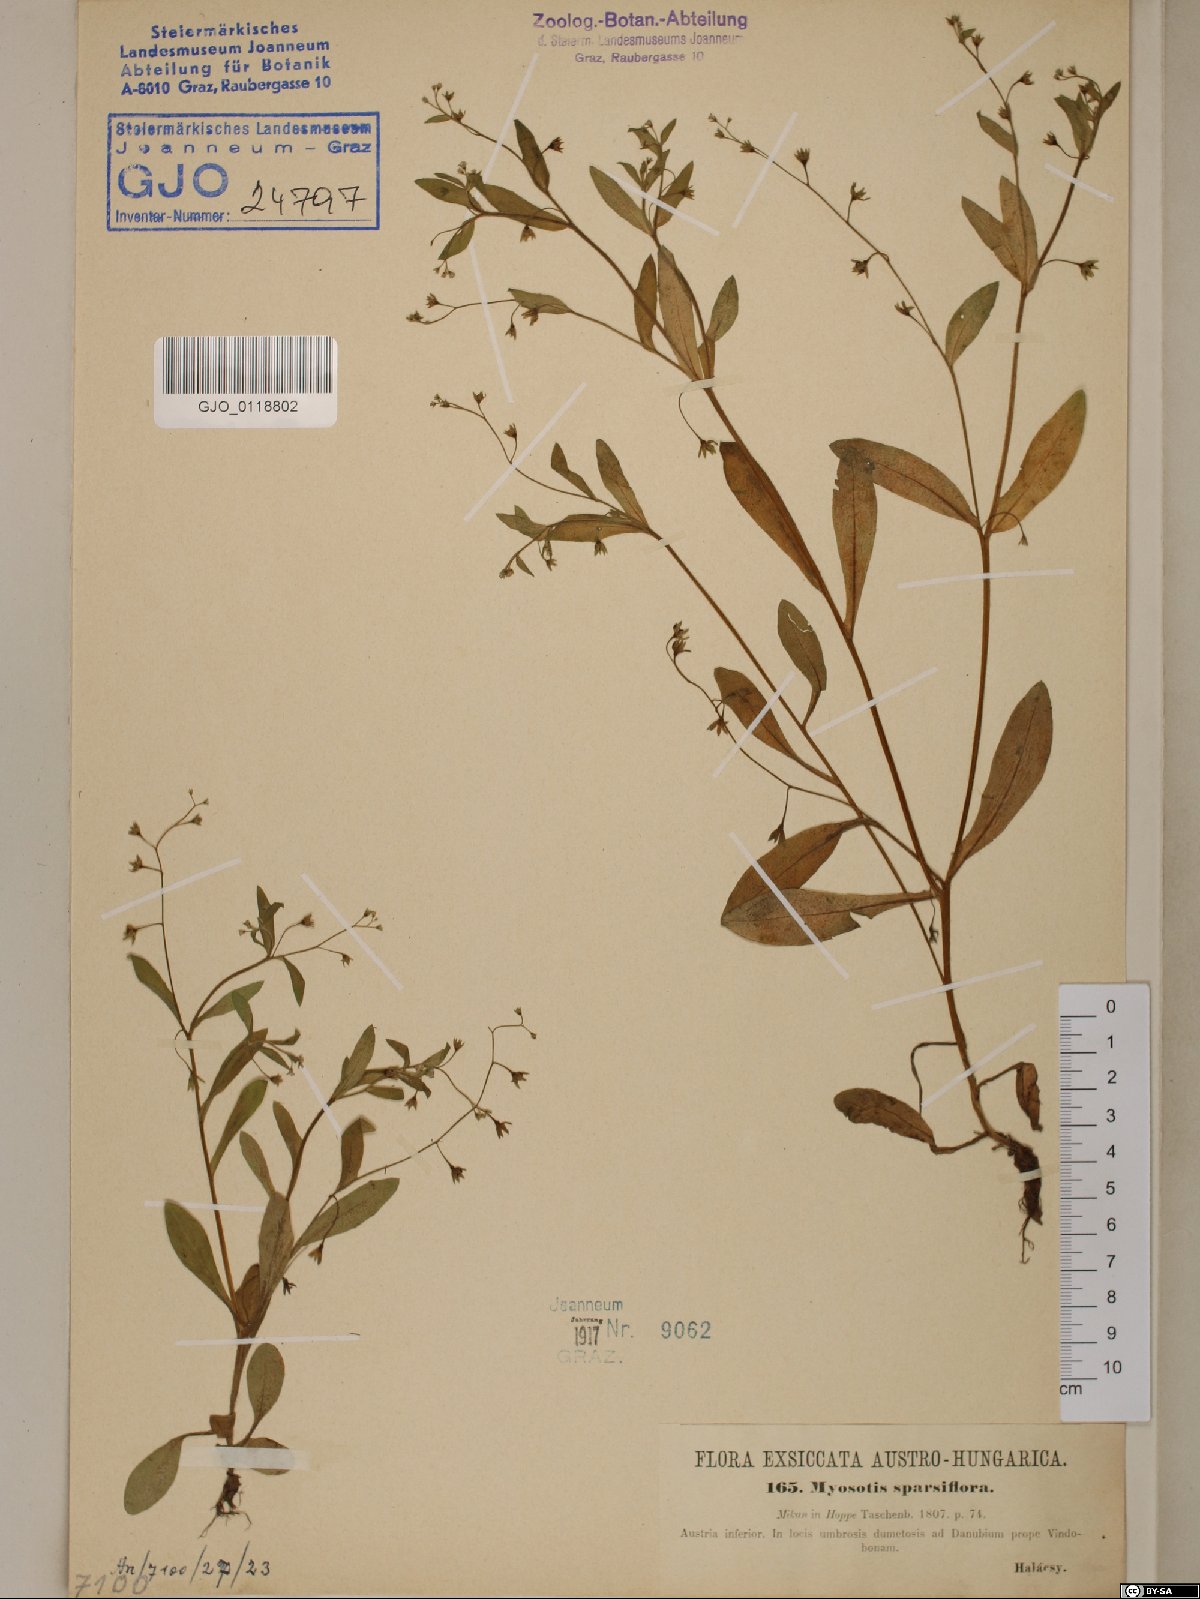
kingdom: Plantae
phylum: Tracheophyta
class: Magnoliopsida
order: Boraginales
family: Boraginaceae
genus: Myosotis
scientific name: Myosotis sparsiflora
